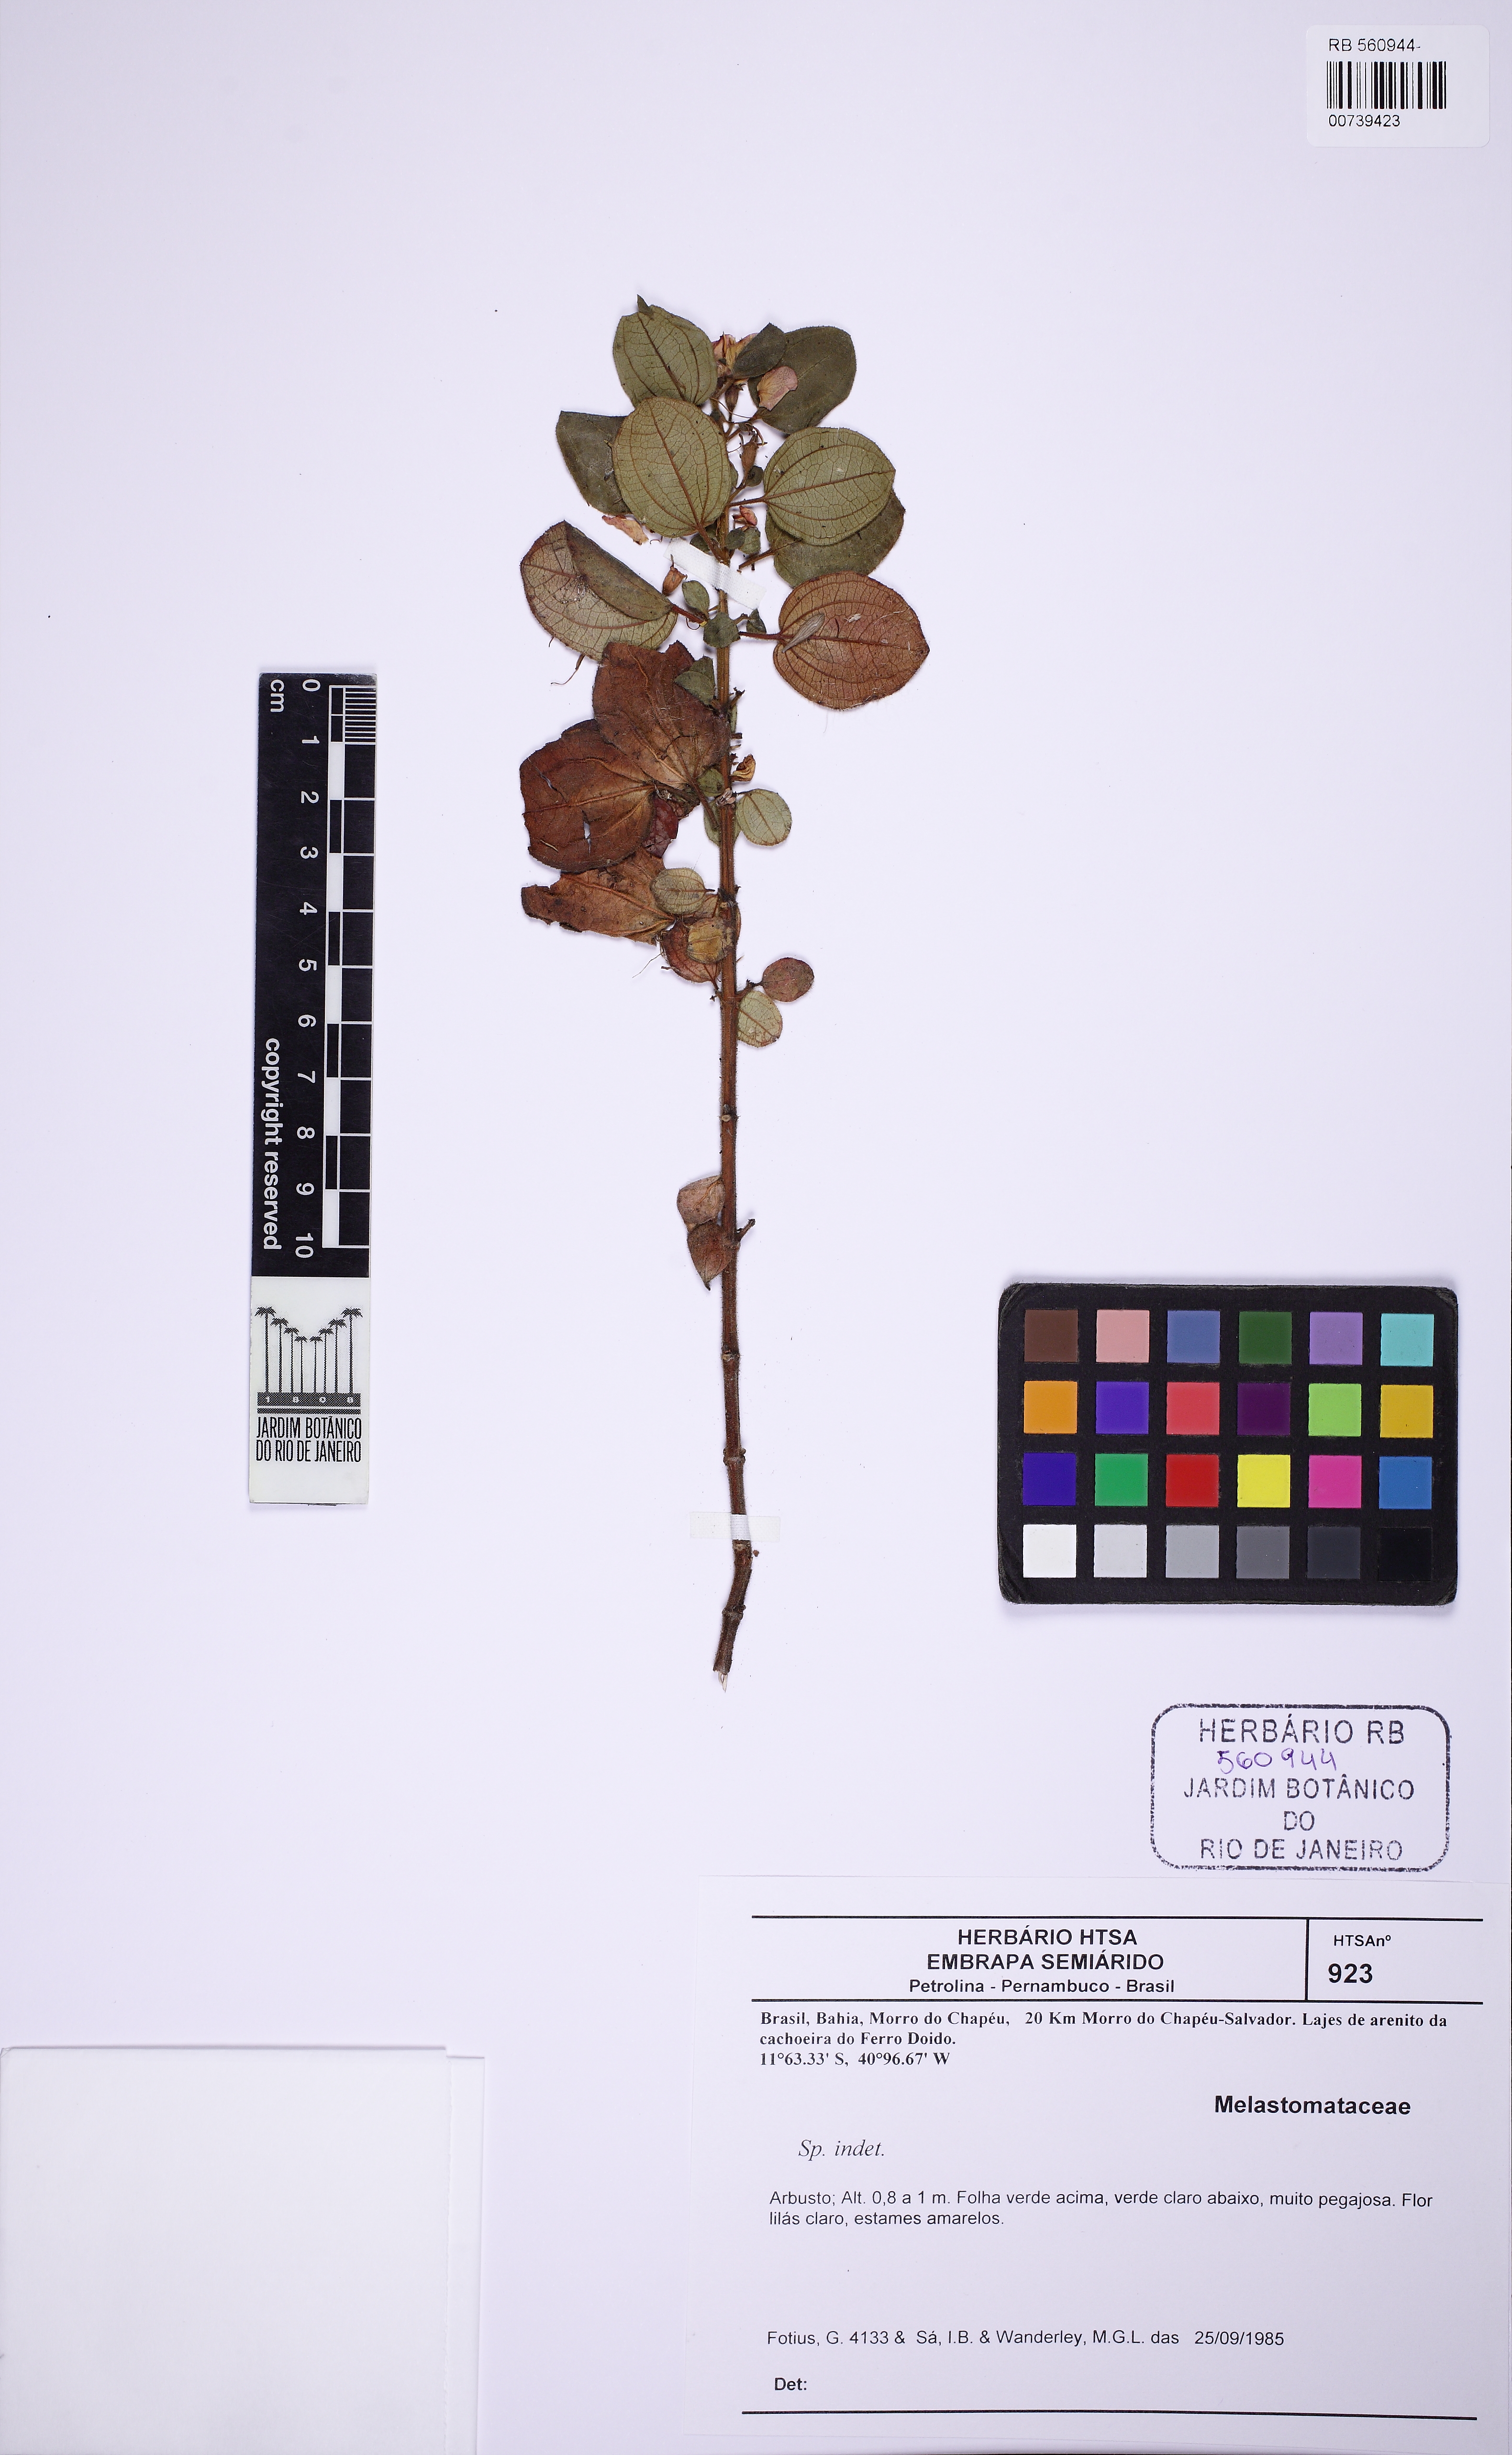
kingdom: Plantae
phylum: Tracheophyta
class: Magnoliopsida
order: Myrtales
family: Melastomataceae
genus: Marcetia
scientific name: Marcetia latifolia
